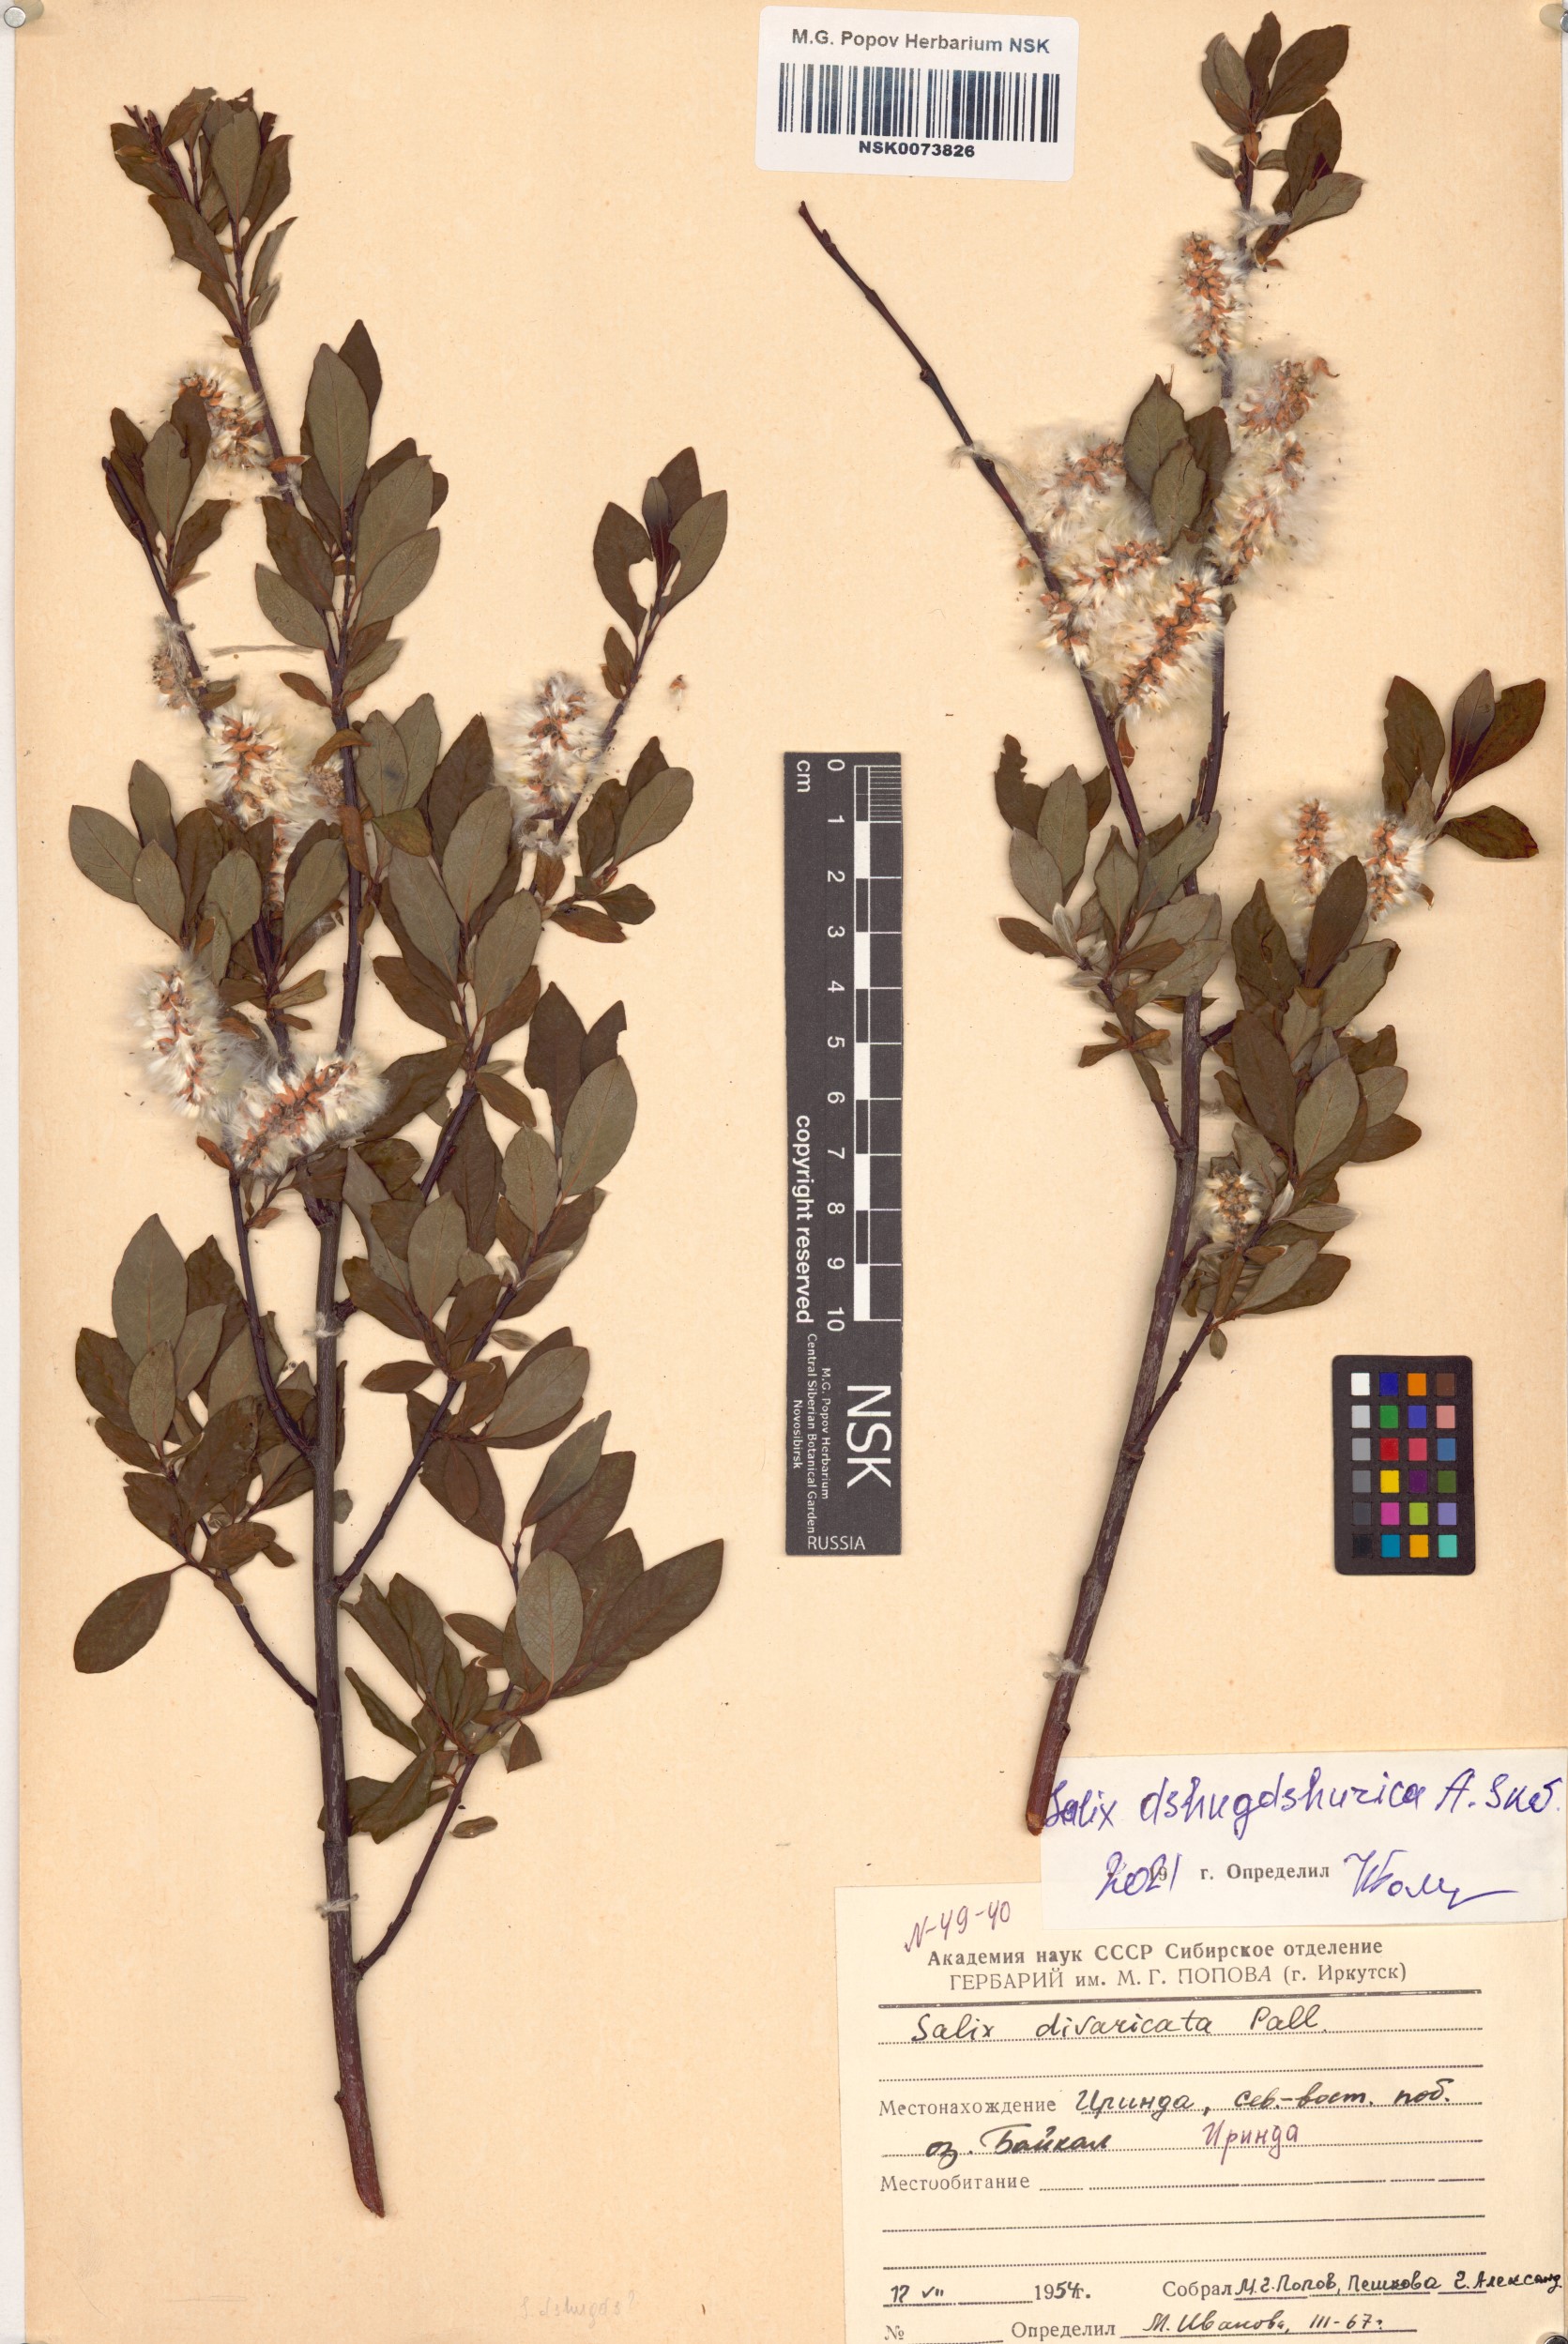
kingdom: Plantae
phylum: Tracheophyta
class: Magnoliopsida
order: Malpighiales
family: Salicaceae
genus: Salix
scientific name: Salix dshugdshurica
